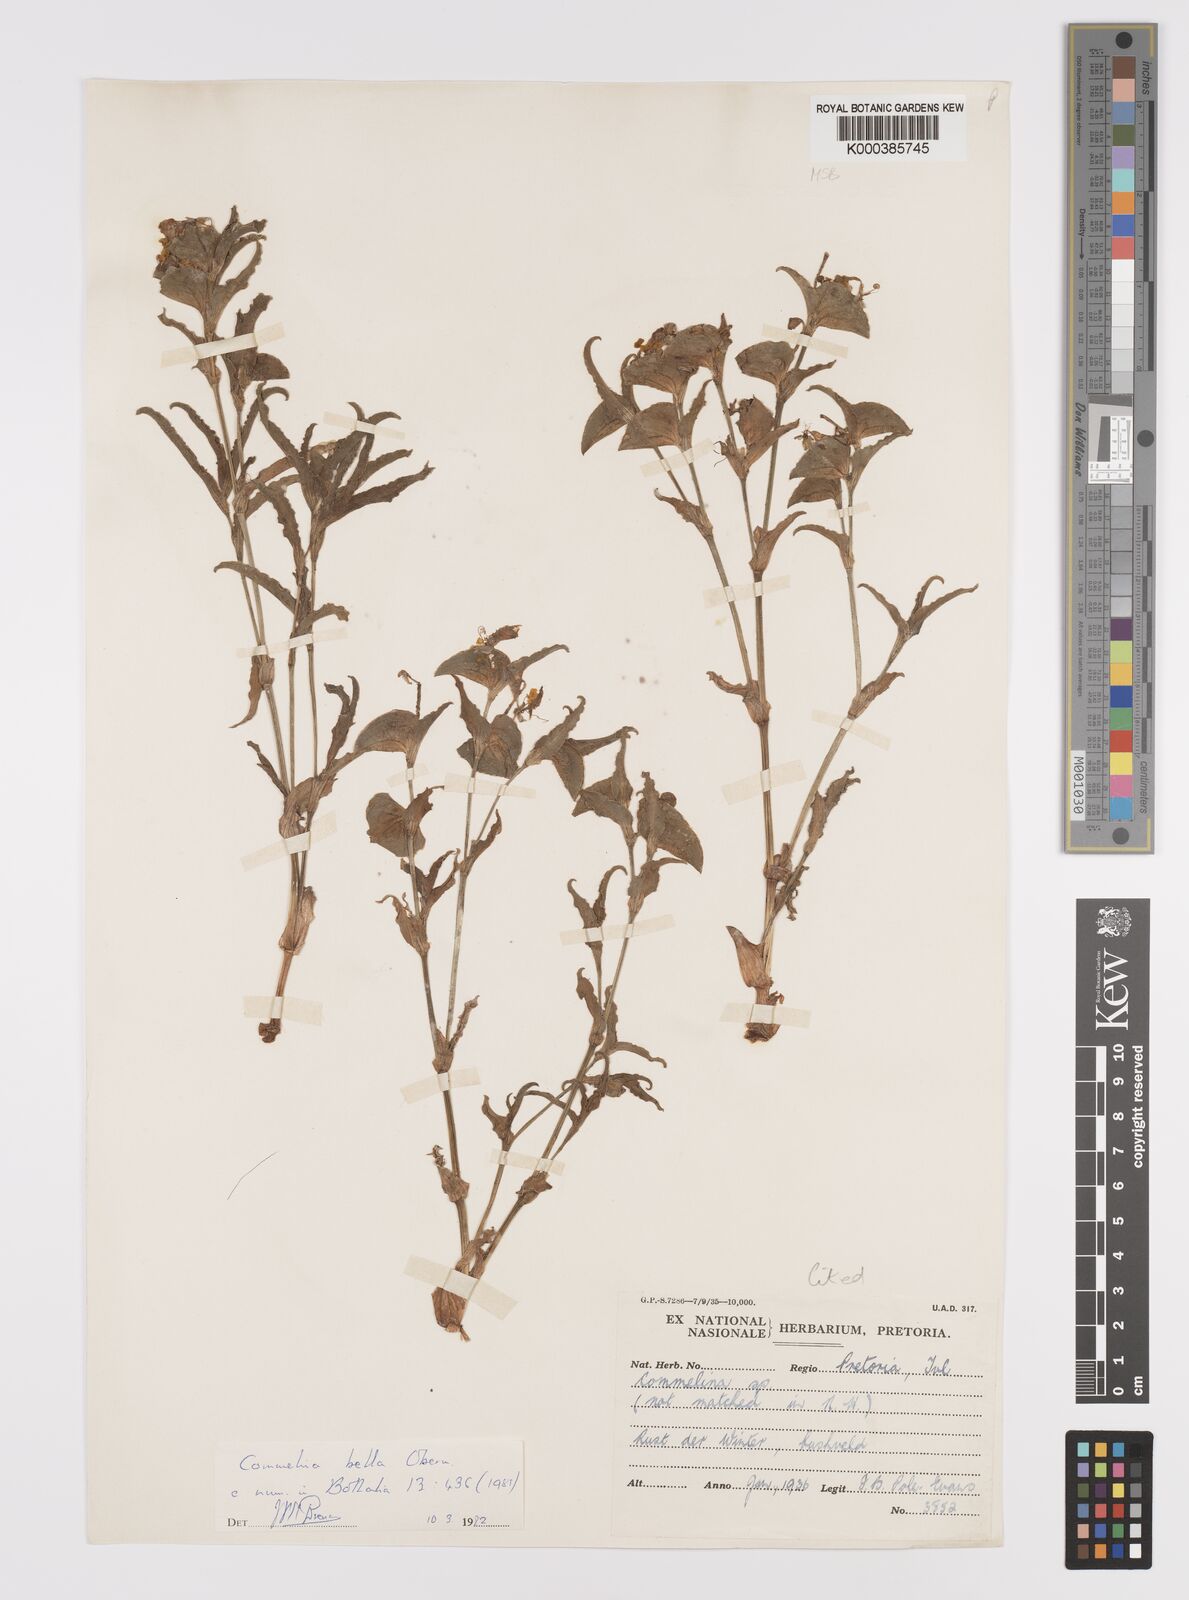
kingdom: Plantae
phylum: Tracheophyta
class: Liliopsida
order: Commelinales
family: Commelinaceae
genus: Commelina
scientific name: Commelina bella
